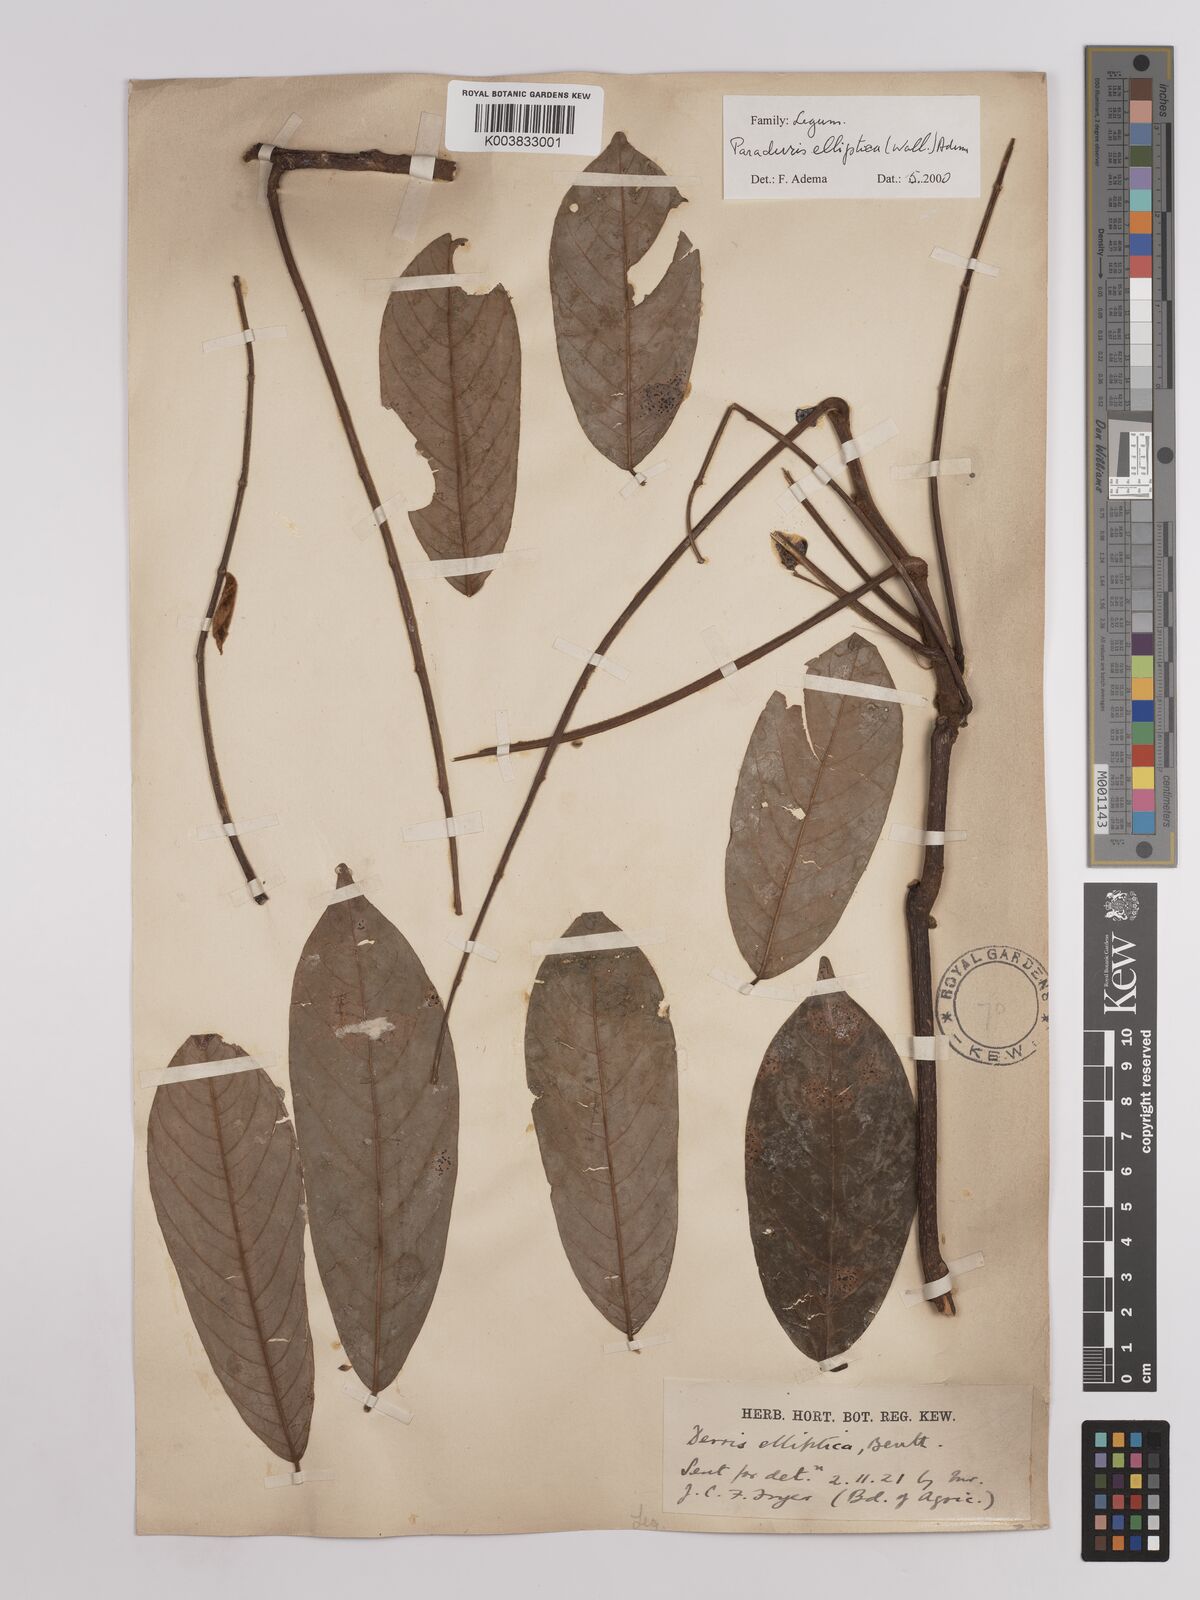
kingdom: Plantae
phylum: Tracheophyta
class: Magnoliopsida
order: Fabales
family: Fabaceae
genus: Derris
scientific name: Derris elliptica
